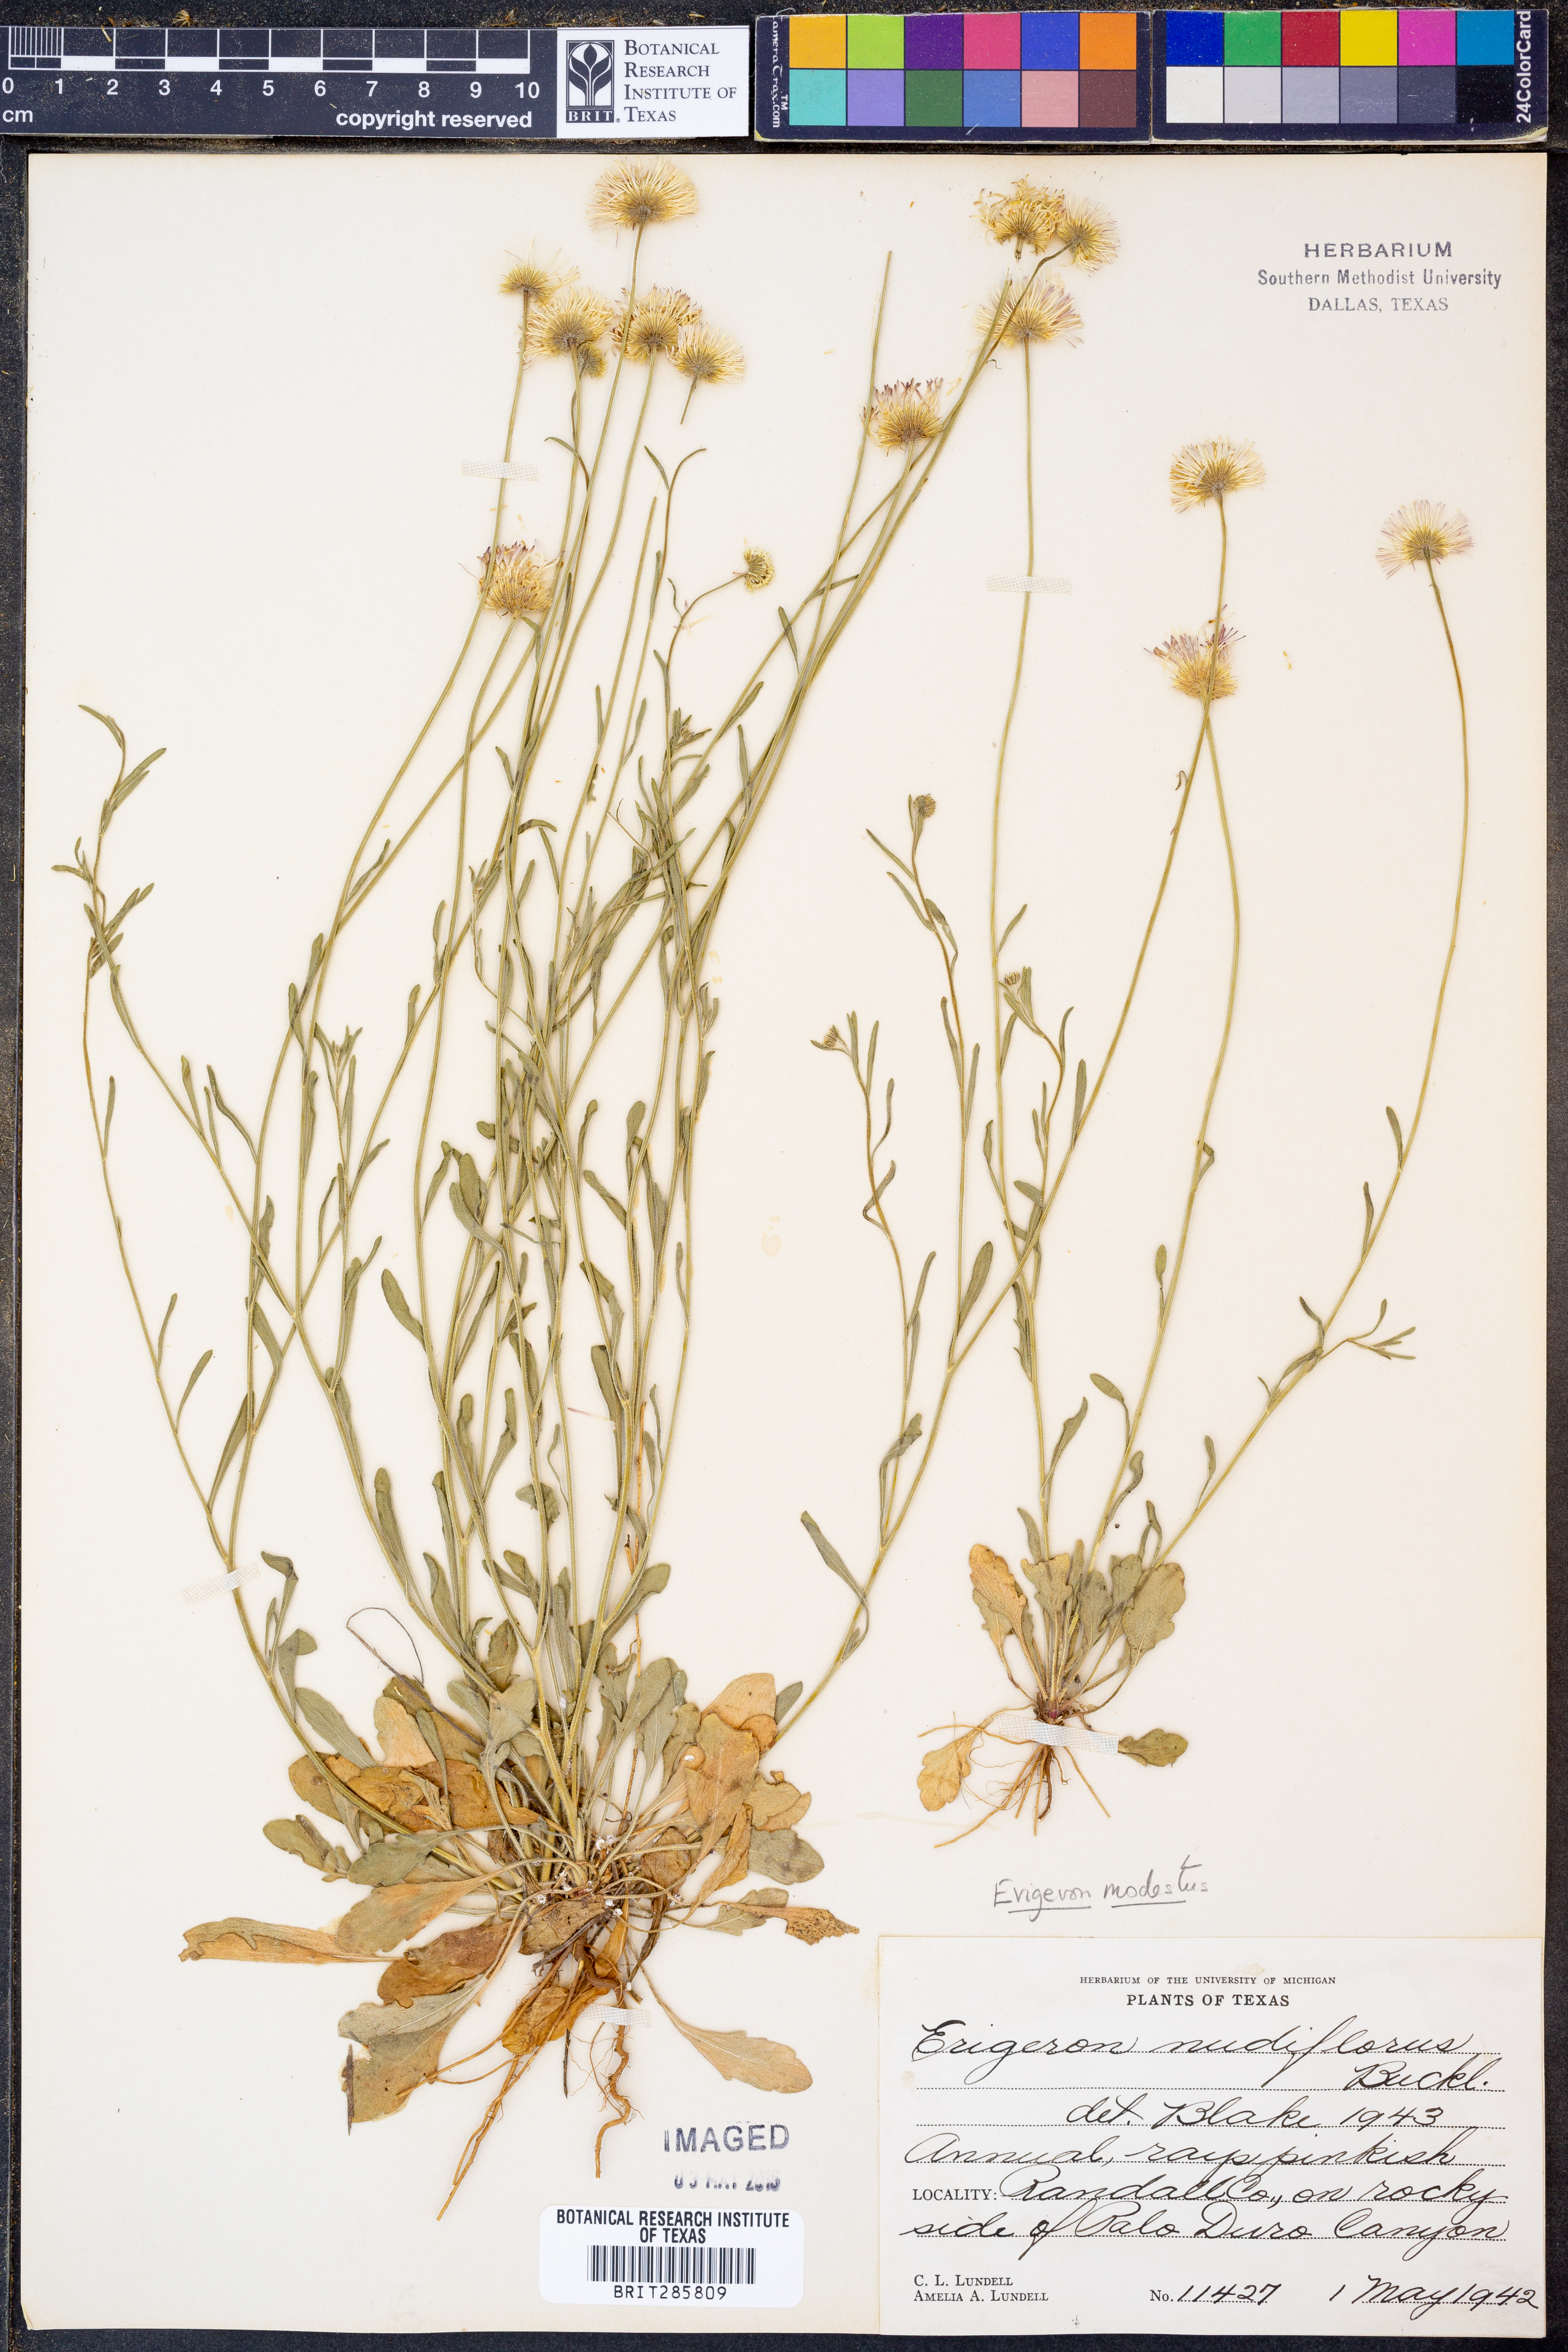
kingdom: Plantae
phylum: Tracheophyta
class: Magnoliopsida
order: Asterales
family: Asteraceae
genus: Erigeron
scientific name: Erigeron modestus
